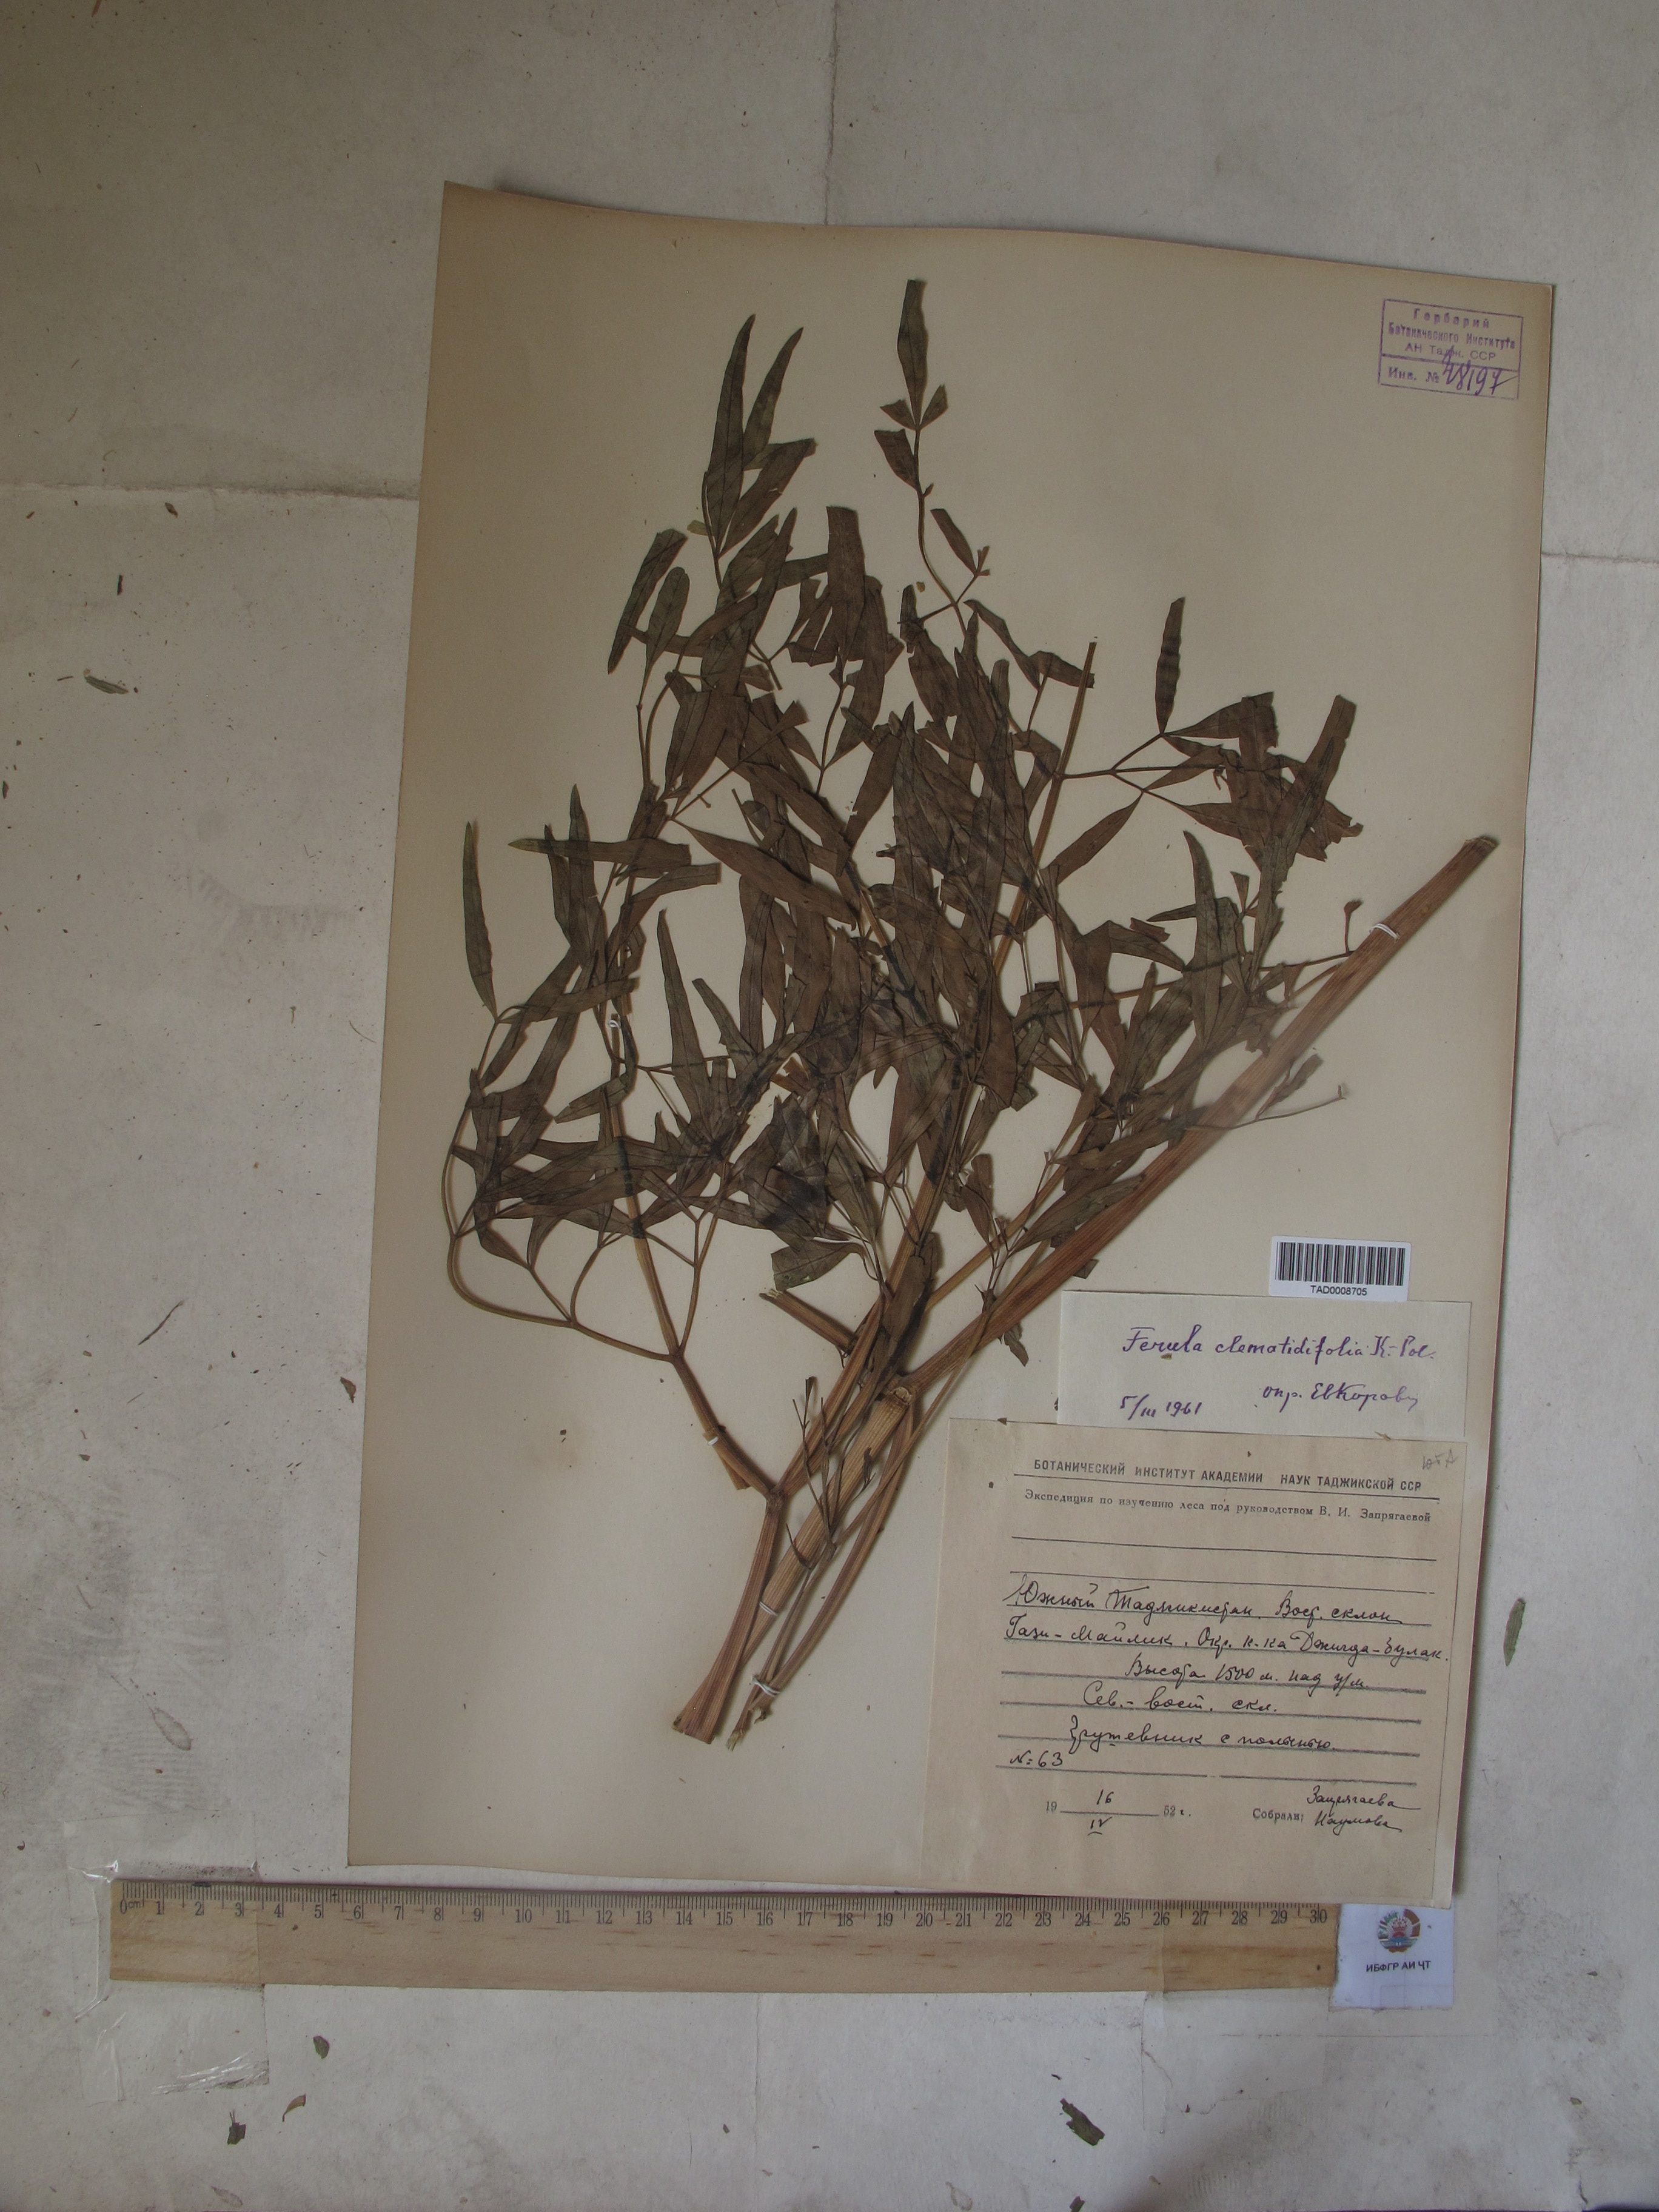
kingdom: Plantae
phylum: Tracheophyta
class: Magnoliopsida
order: Apiales
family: Apiaceae
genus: Ferula
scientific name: Ferula clematidifolia
